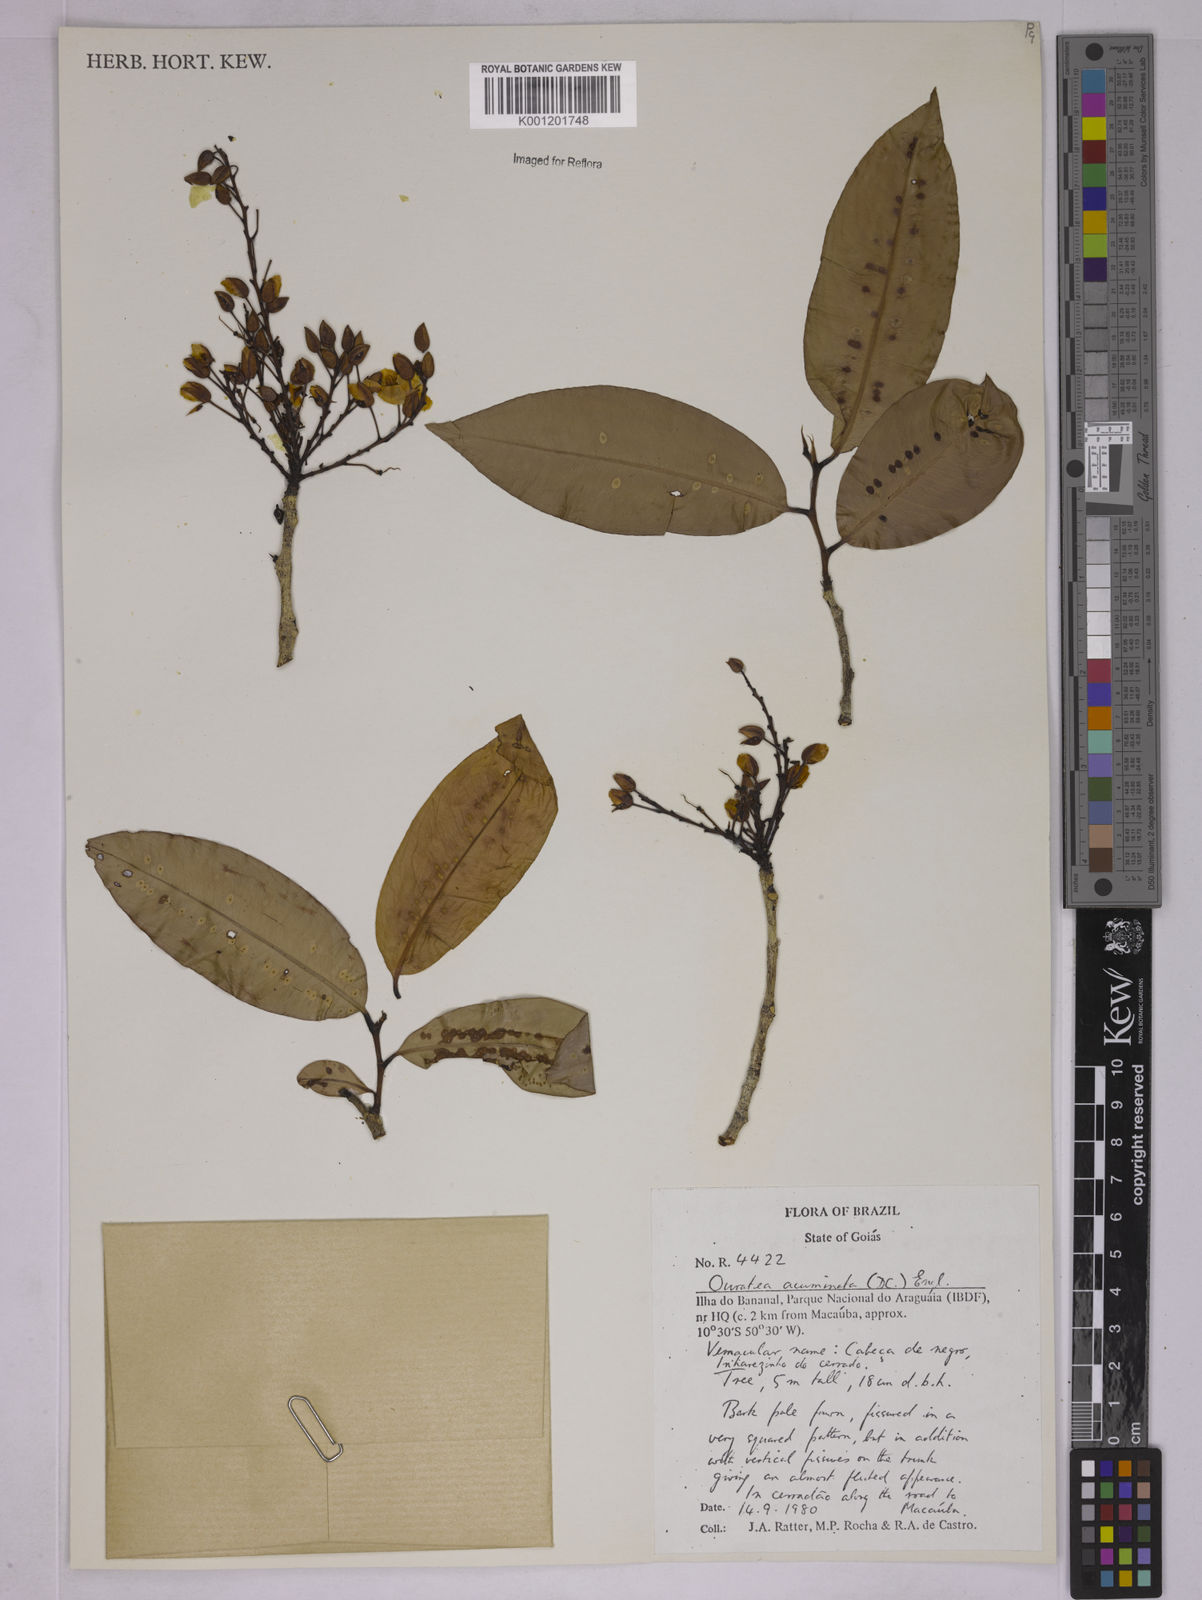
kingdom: Plantae
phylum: Tracheophyta
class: Magnoliopsida
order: Malpighiales
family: Ochnaceae
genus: Ouratea
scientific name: Ouratea acuminata
